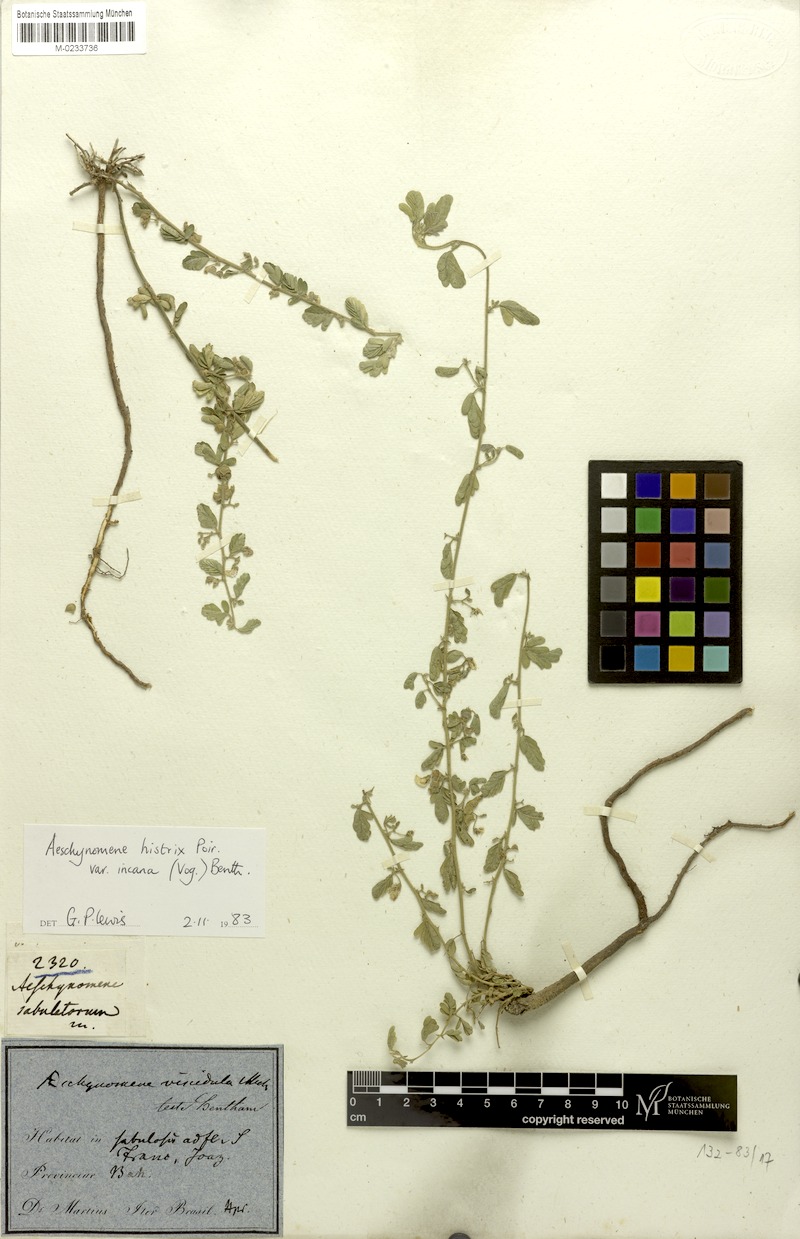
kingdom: Plantae
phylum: Tracheophyta
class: Magnoliopsida
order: Fabales
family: Fabaceae
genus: Ctenodon
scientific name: Ctenodon histrix
